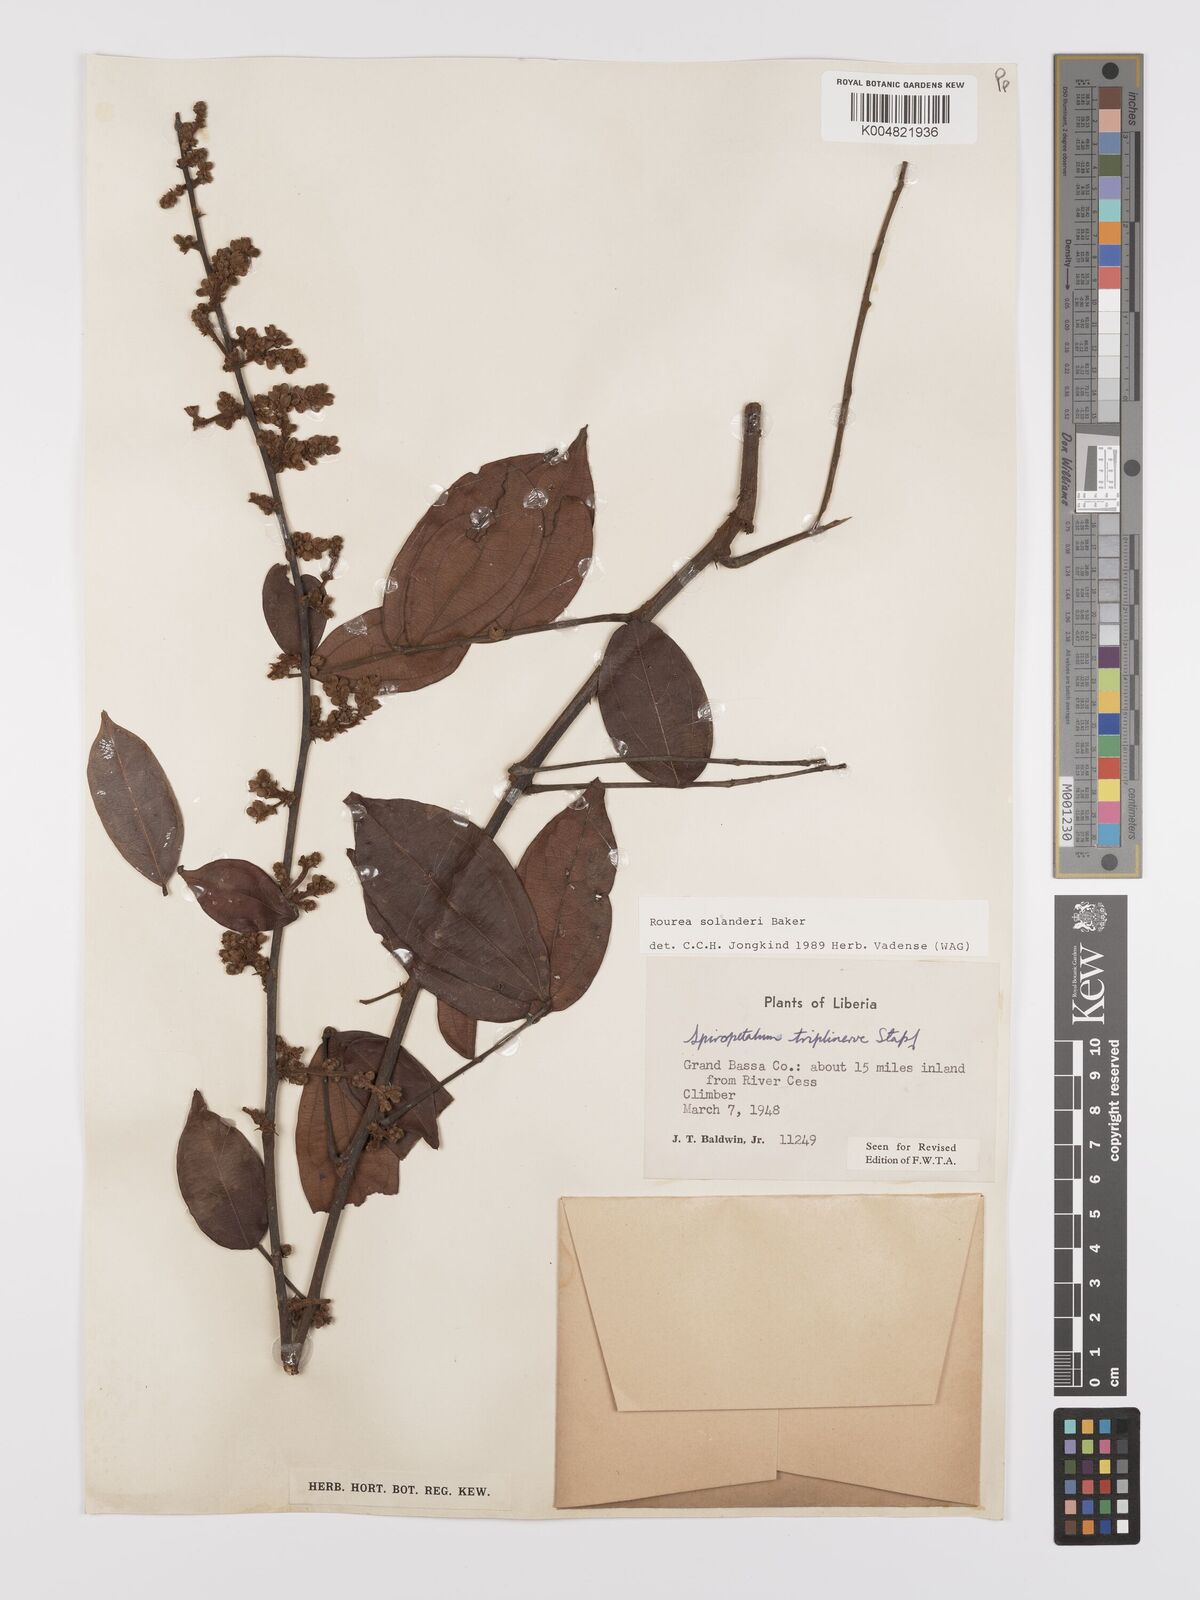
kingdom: Plantae
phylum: Tracheophyta
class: Magnoliopsida
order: Oxalidales
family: Connaraceae
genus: Rourea
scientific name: Rourea solanderi
